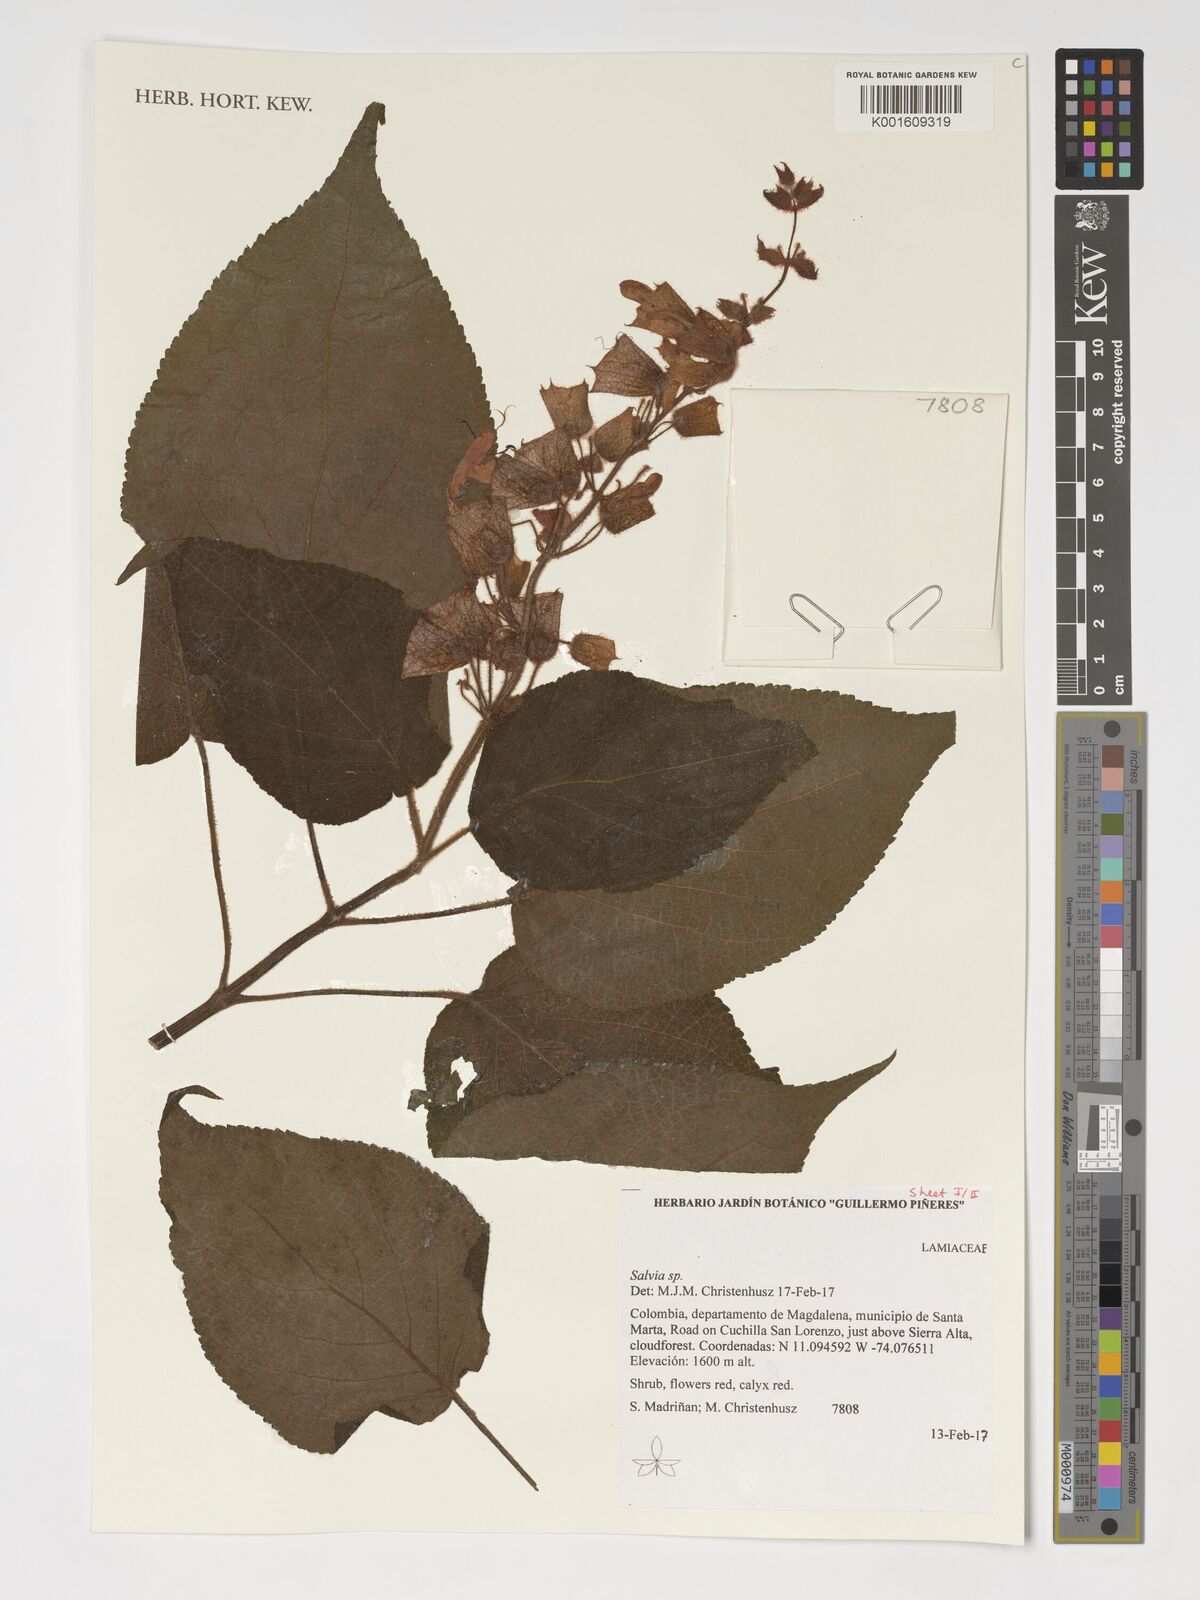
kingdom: Plantae
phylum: Tracheophyta
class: Magnoliopsida
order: Lamiales
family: Lamiaceae
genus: Salvia
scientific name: Salvia
